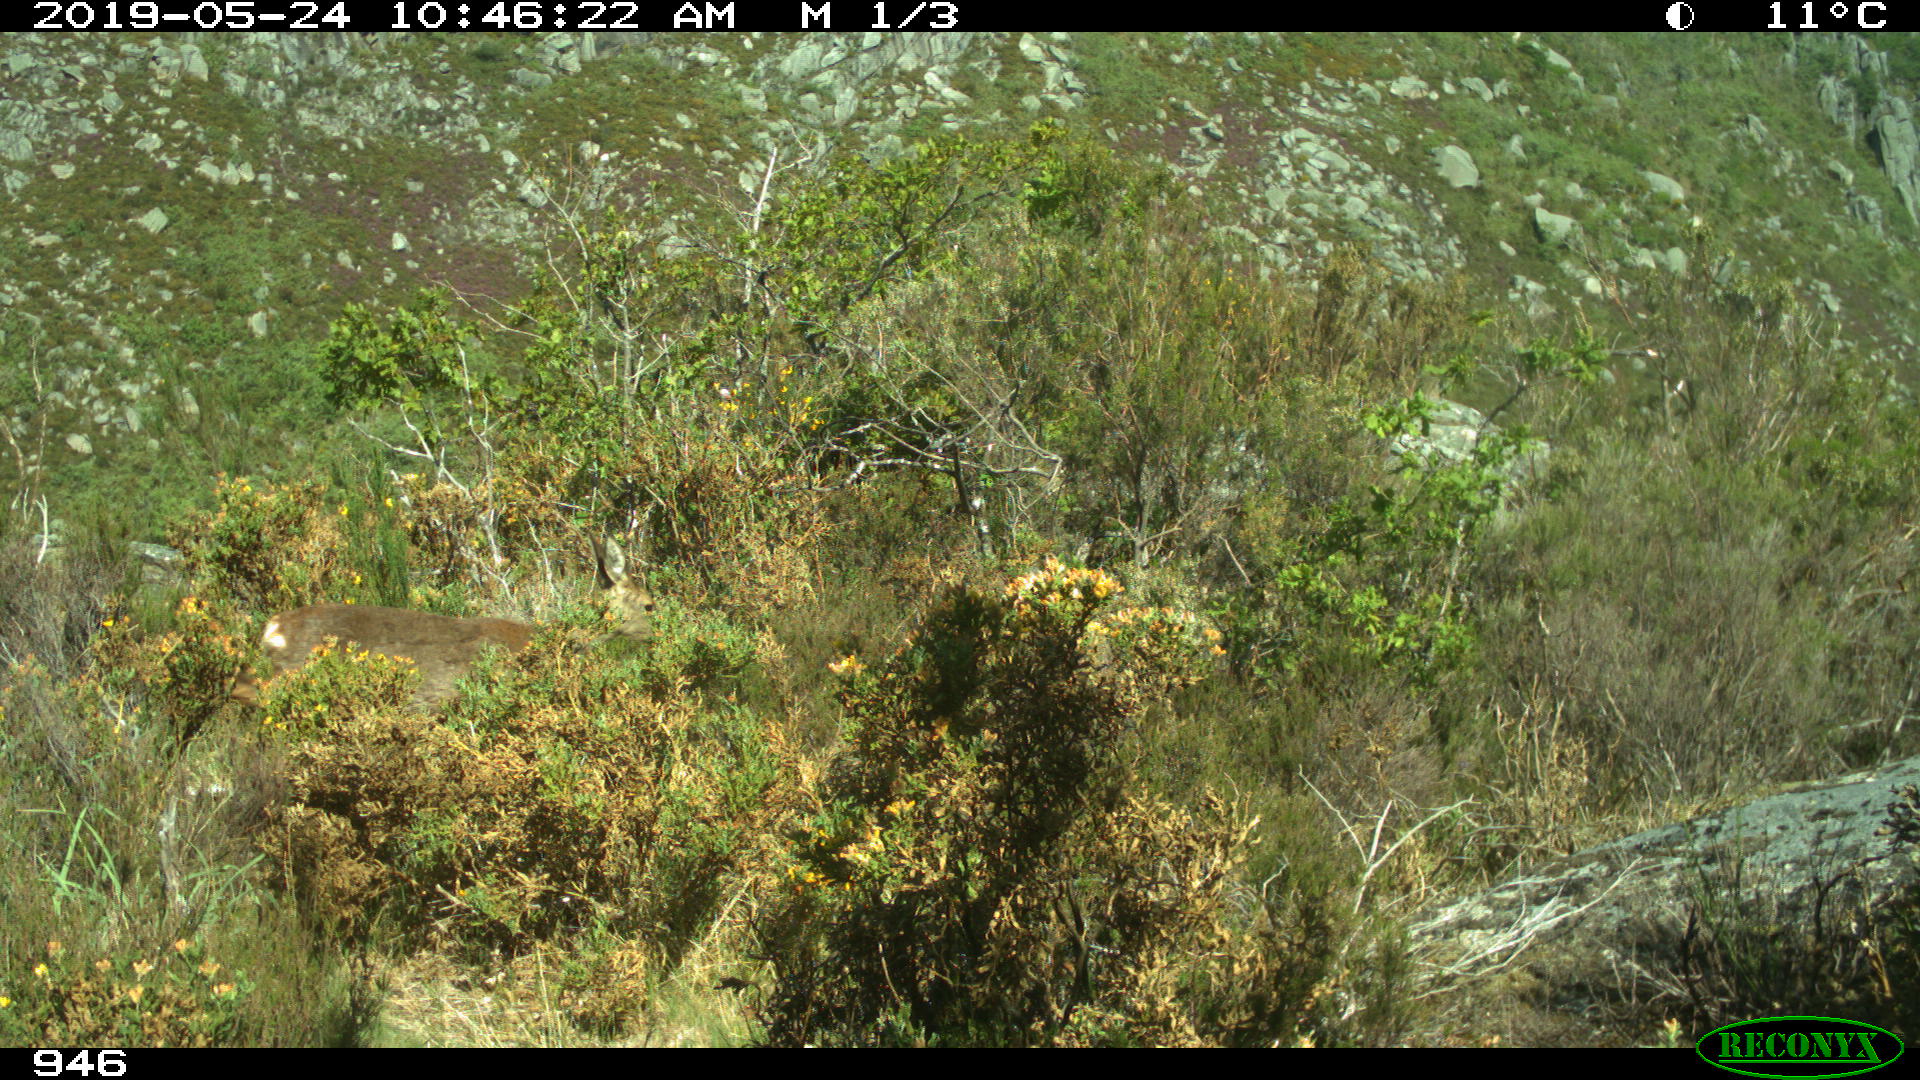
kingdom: Animalia
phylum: Chordata
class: Mammalia
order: Artiodactyla
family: Cervidae
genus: Capreolus
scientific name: Capreolus capreolus
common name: Western roe deer
